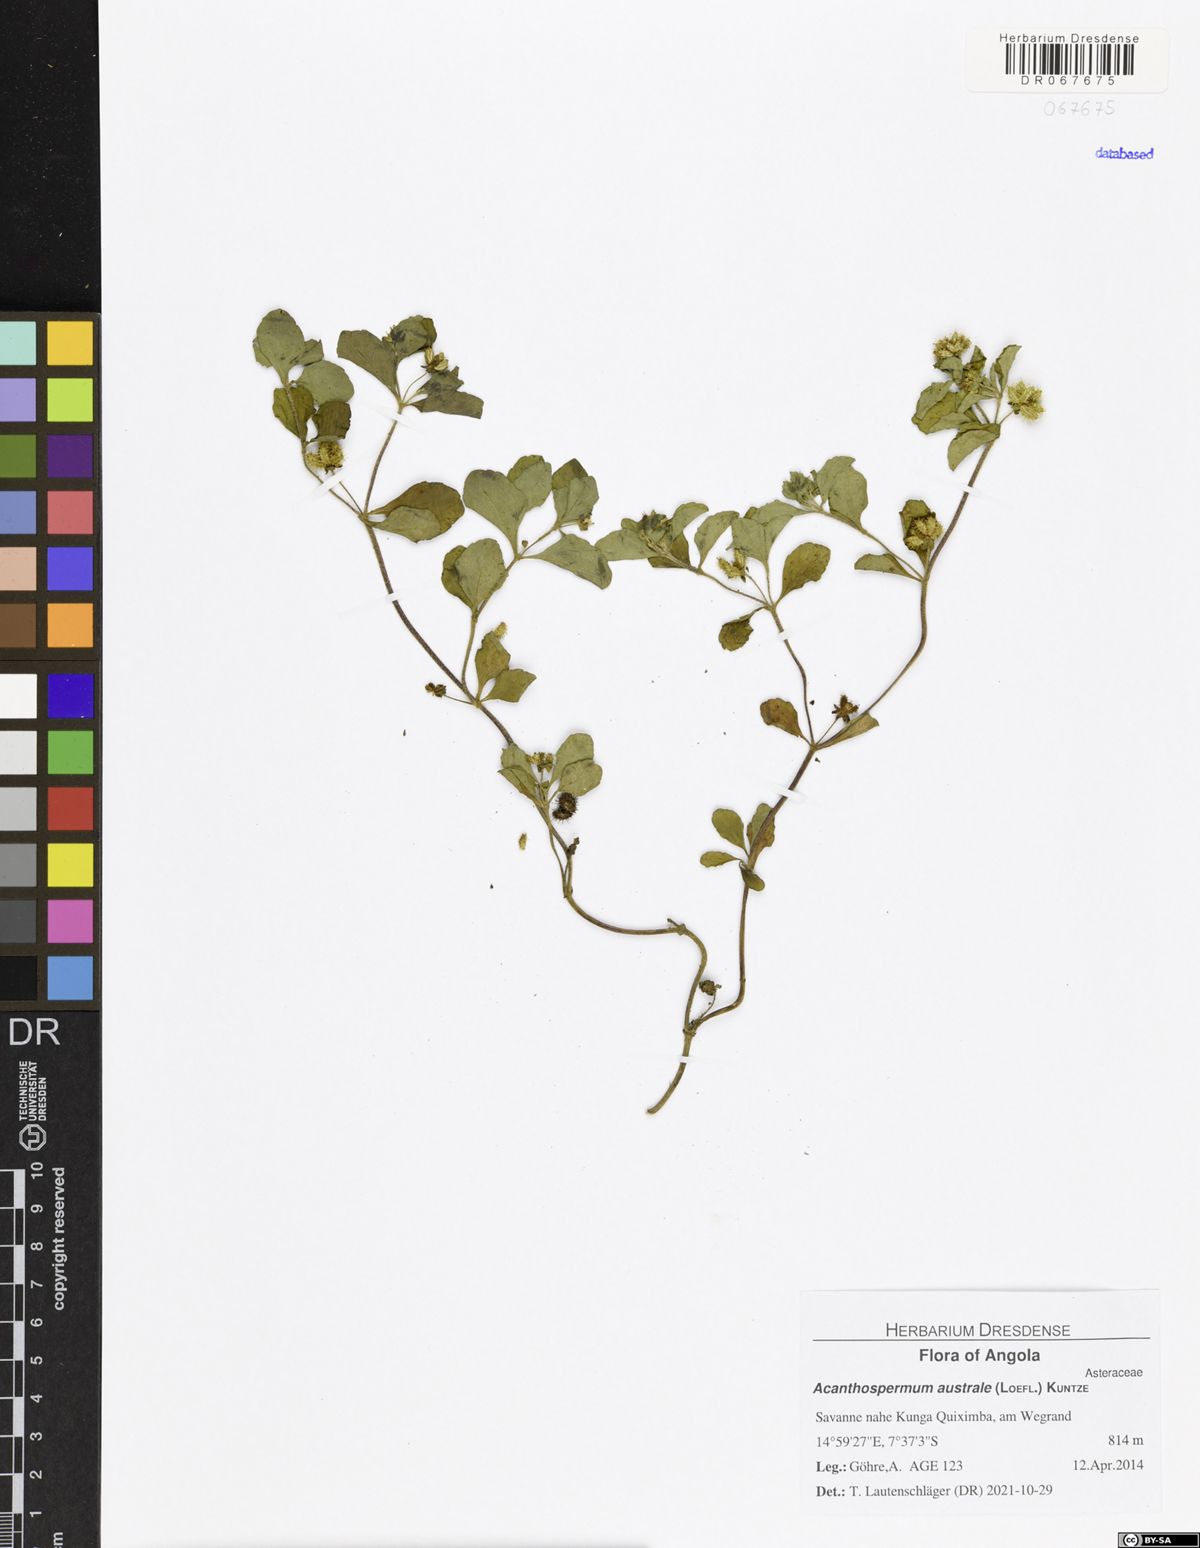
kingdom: Plantae
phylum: Tracheophyta
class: Magnoliopsida
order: Asterales
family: Asteraceae
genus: Acanthospermum
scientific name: Acanthospermum australe
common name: Paraguayan starbur
